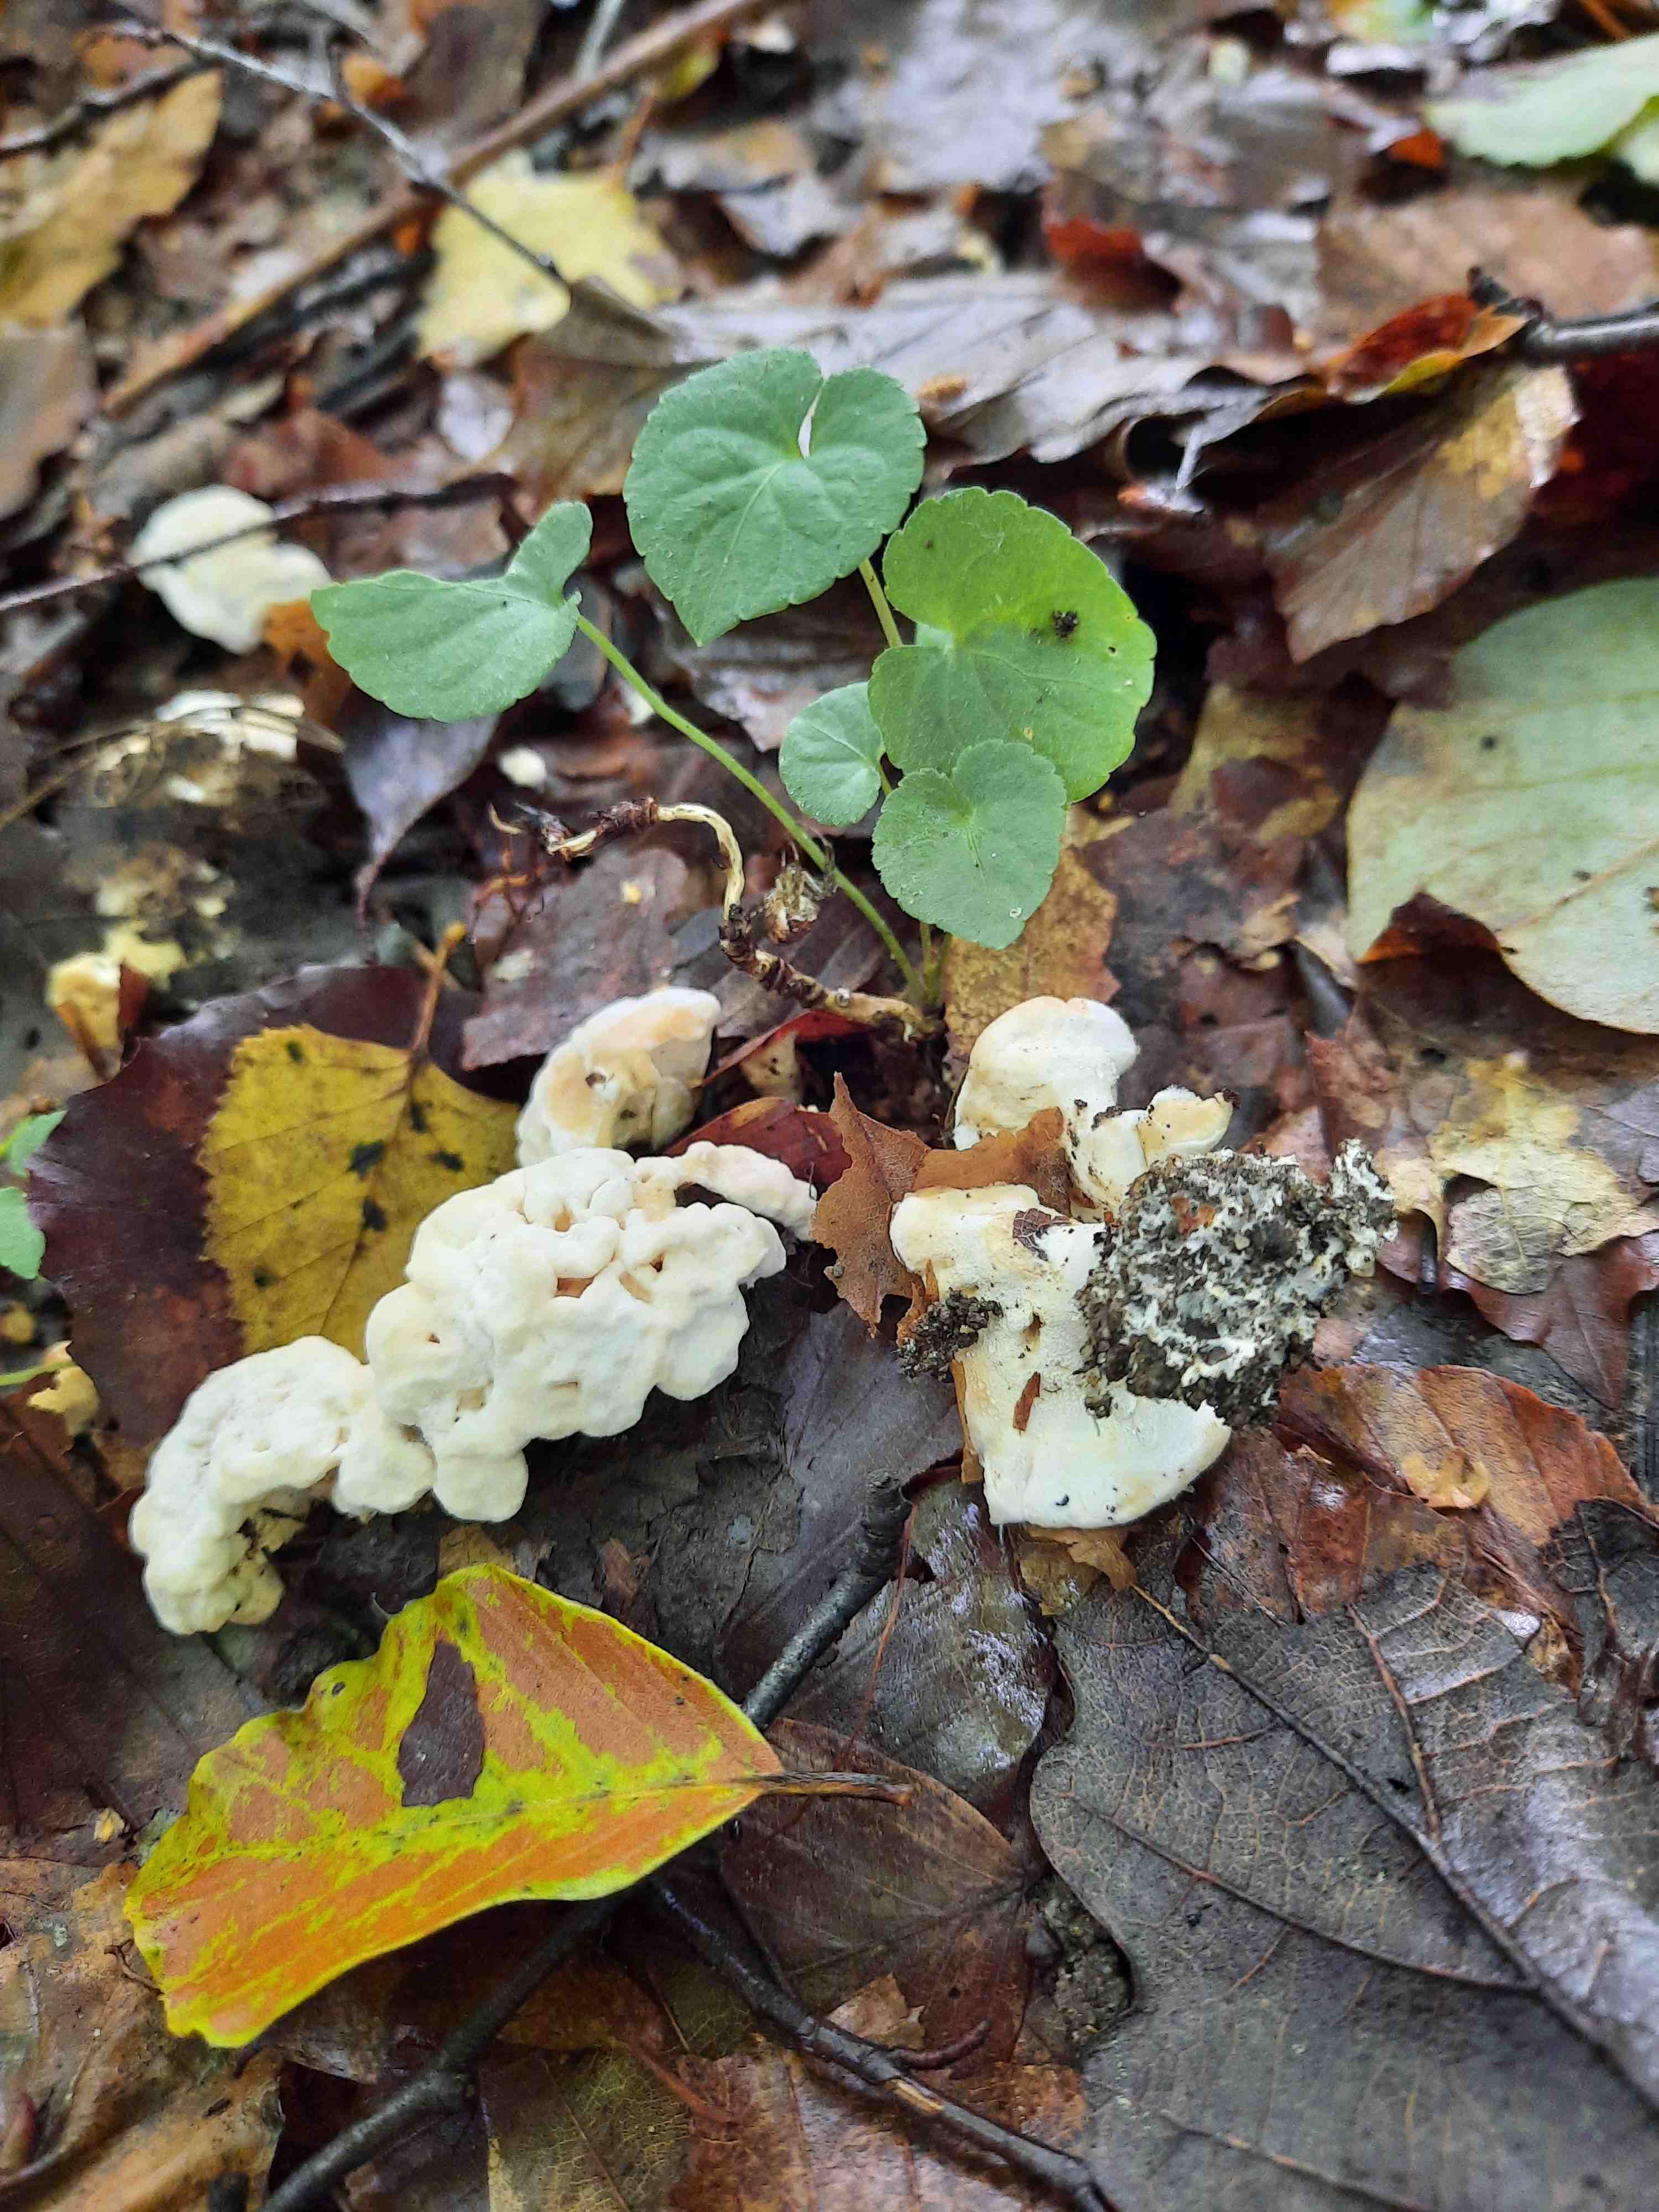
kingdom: Fungi
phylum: Basidiomycota
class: Agaricomycetes
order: Cantharellales
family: Hydnaceae
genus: Sistotrema
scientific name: Sistotrema confluens
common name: stilket kroneskorpe
